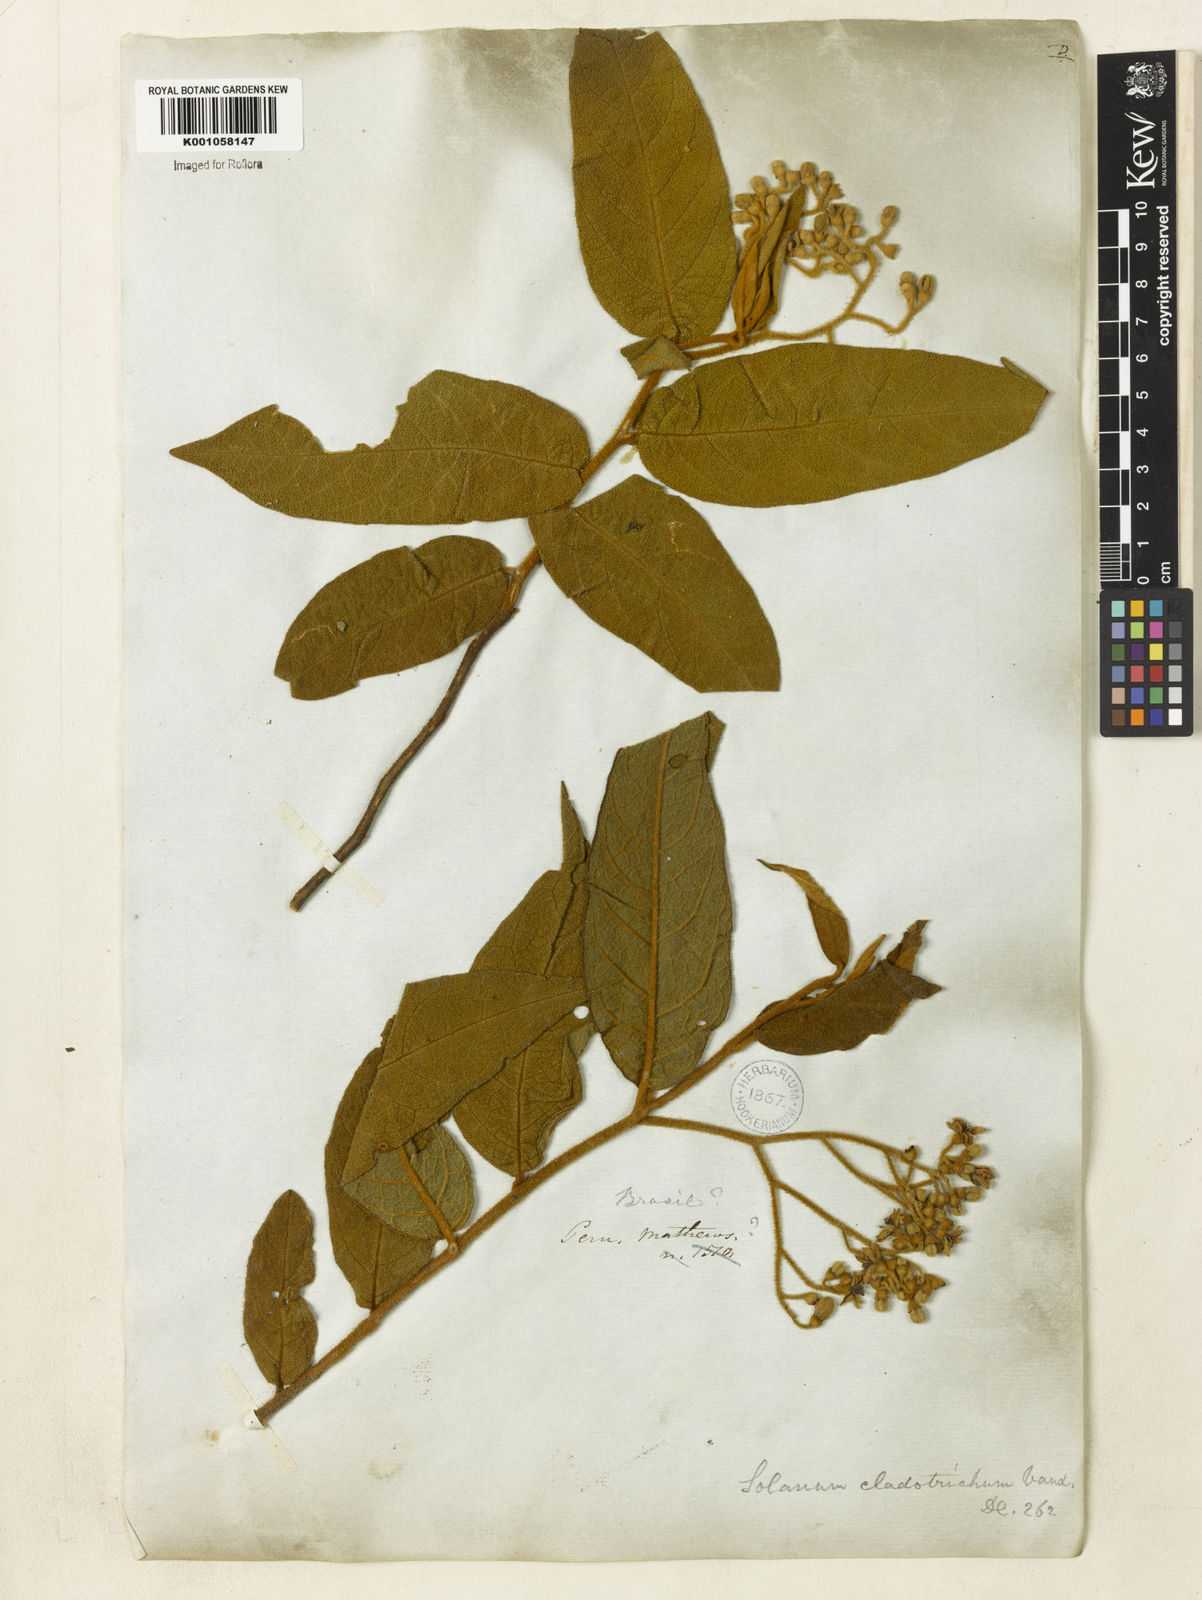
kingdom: Plantae
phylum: Tracheophyta
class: Magnoliopsida
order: Solanales
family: Solanaceae
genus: Solanum
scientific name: Solanum jussiaei
